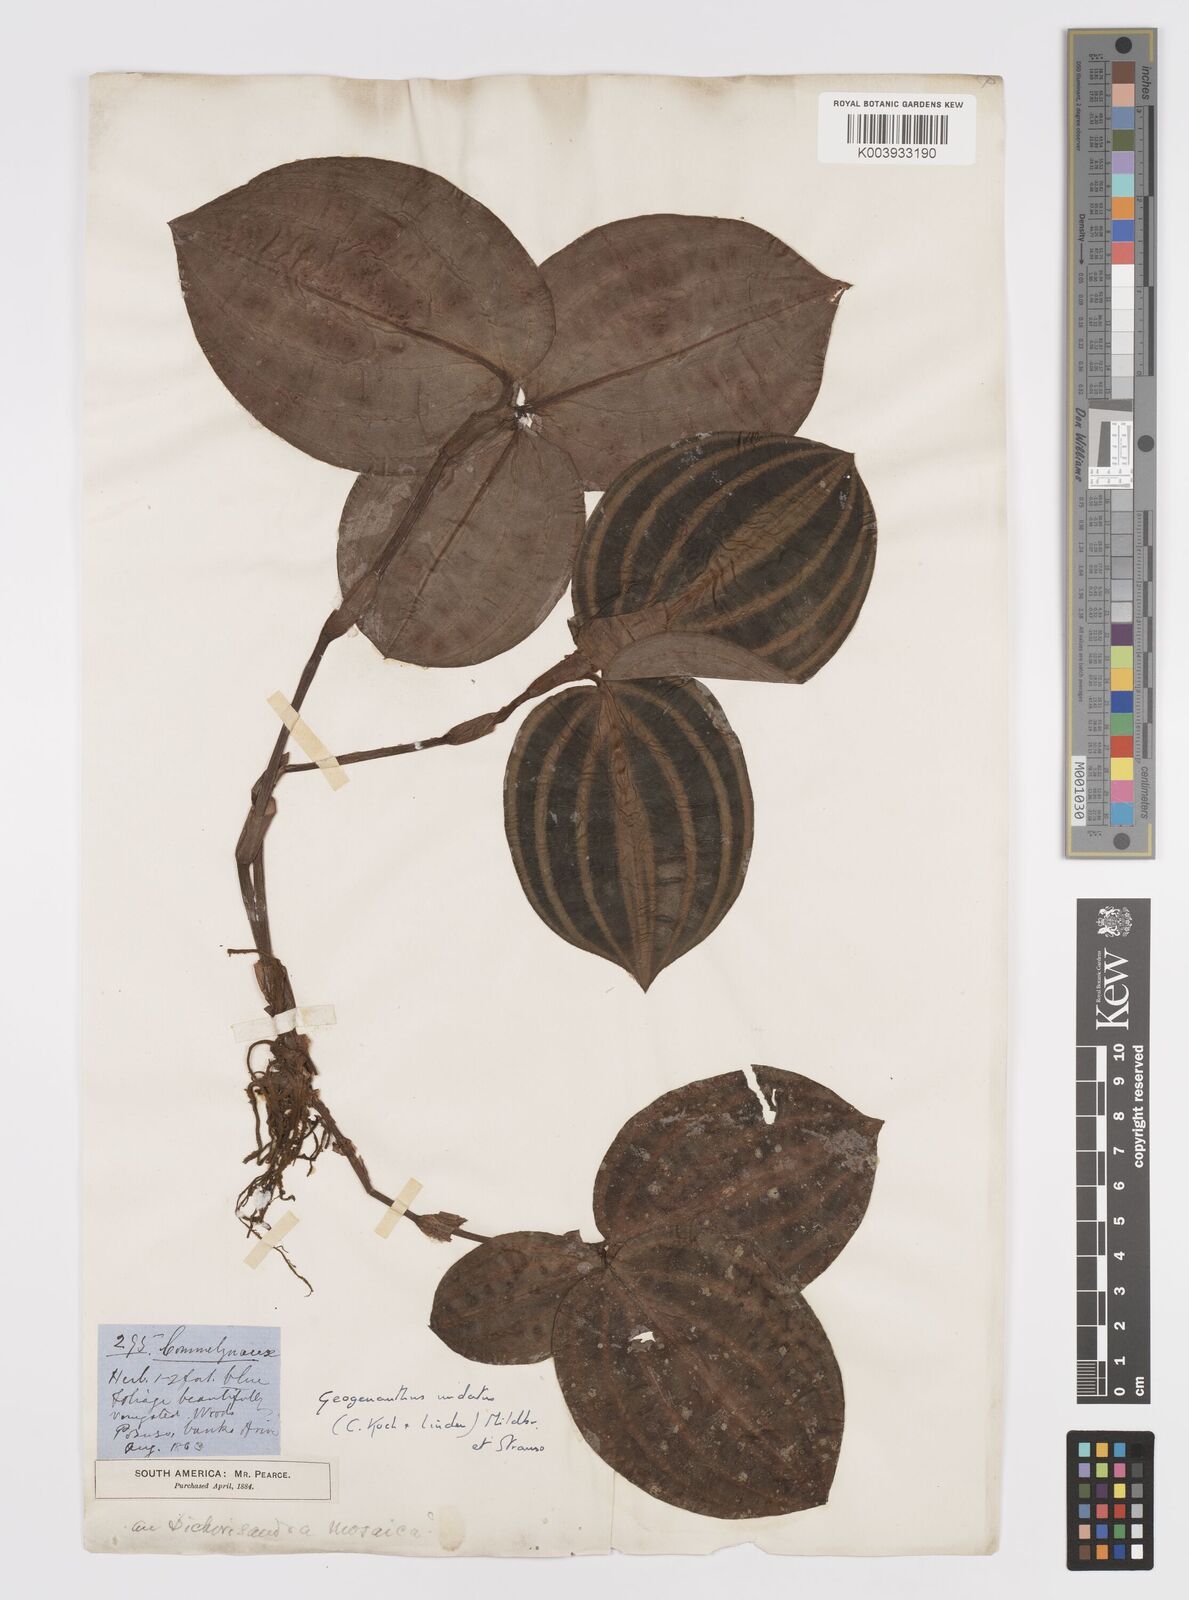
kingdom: Plantae
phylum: Tracheophyta
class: Liliopsida
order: Commelinales
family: Commelinaceae
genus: Geogenanthus
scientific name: Geogenanthus poeppigii
